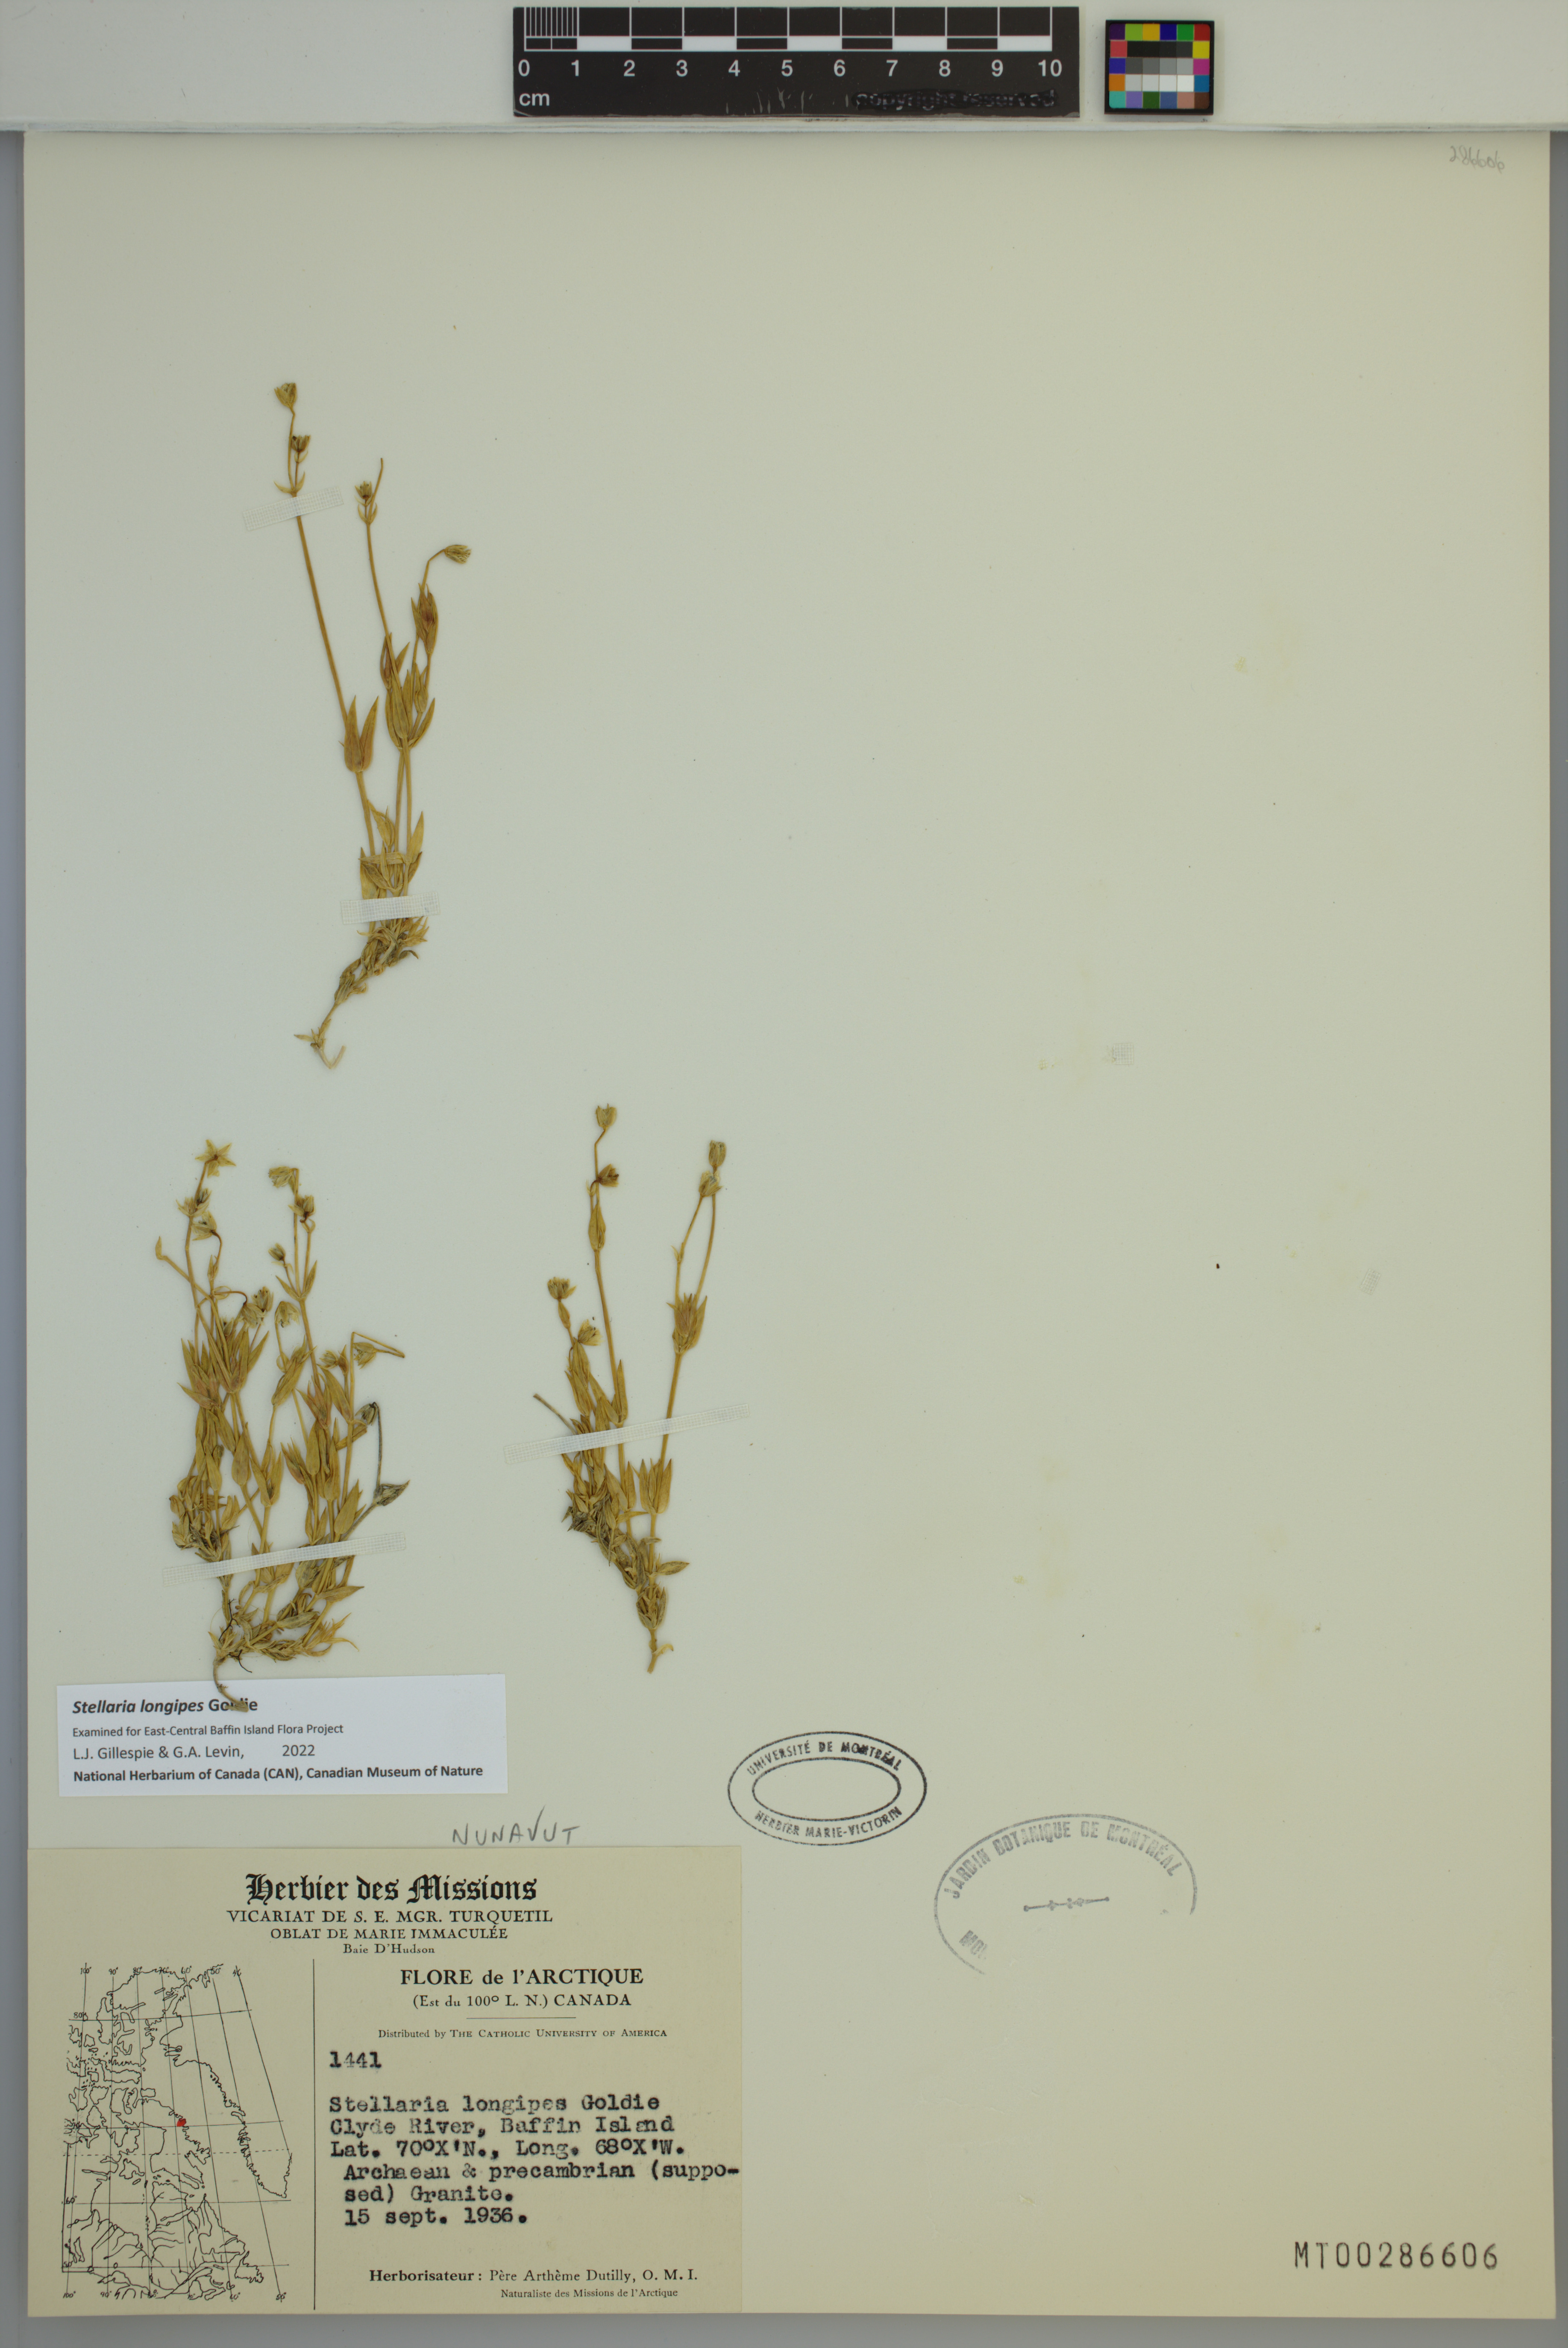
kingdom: Plantae
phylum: Tracheophyta
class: Magnoliopsida
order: Caryophyllales
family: Caryophyllaceae
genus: Stellaria
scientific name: Stellaria longipes
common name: Goldie's starwort
